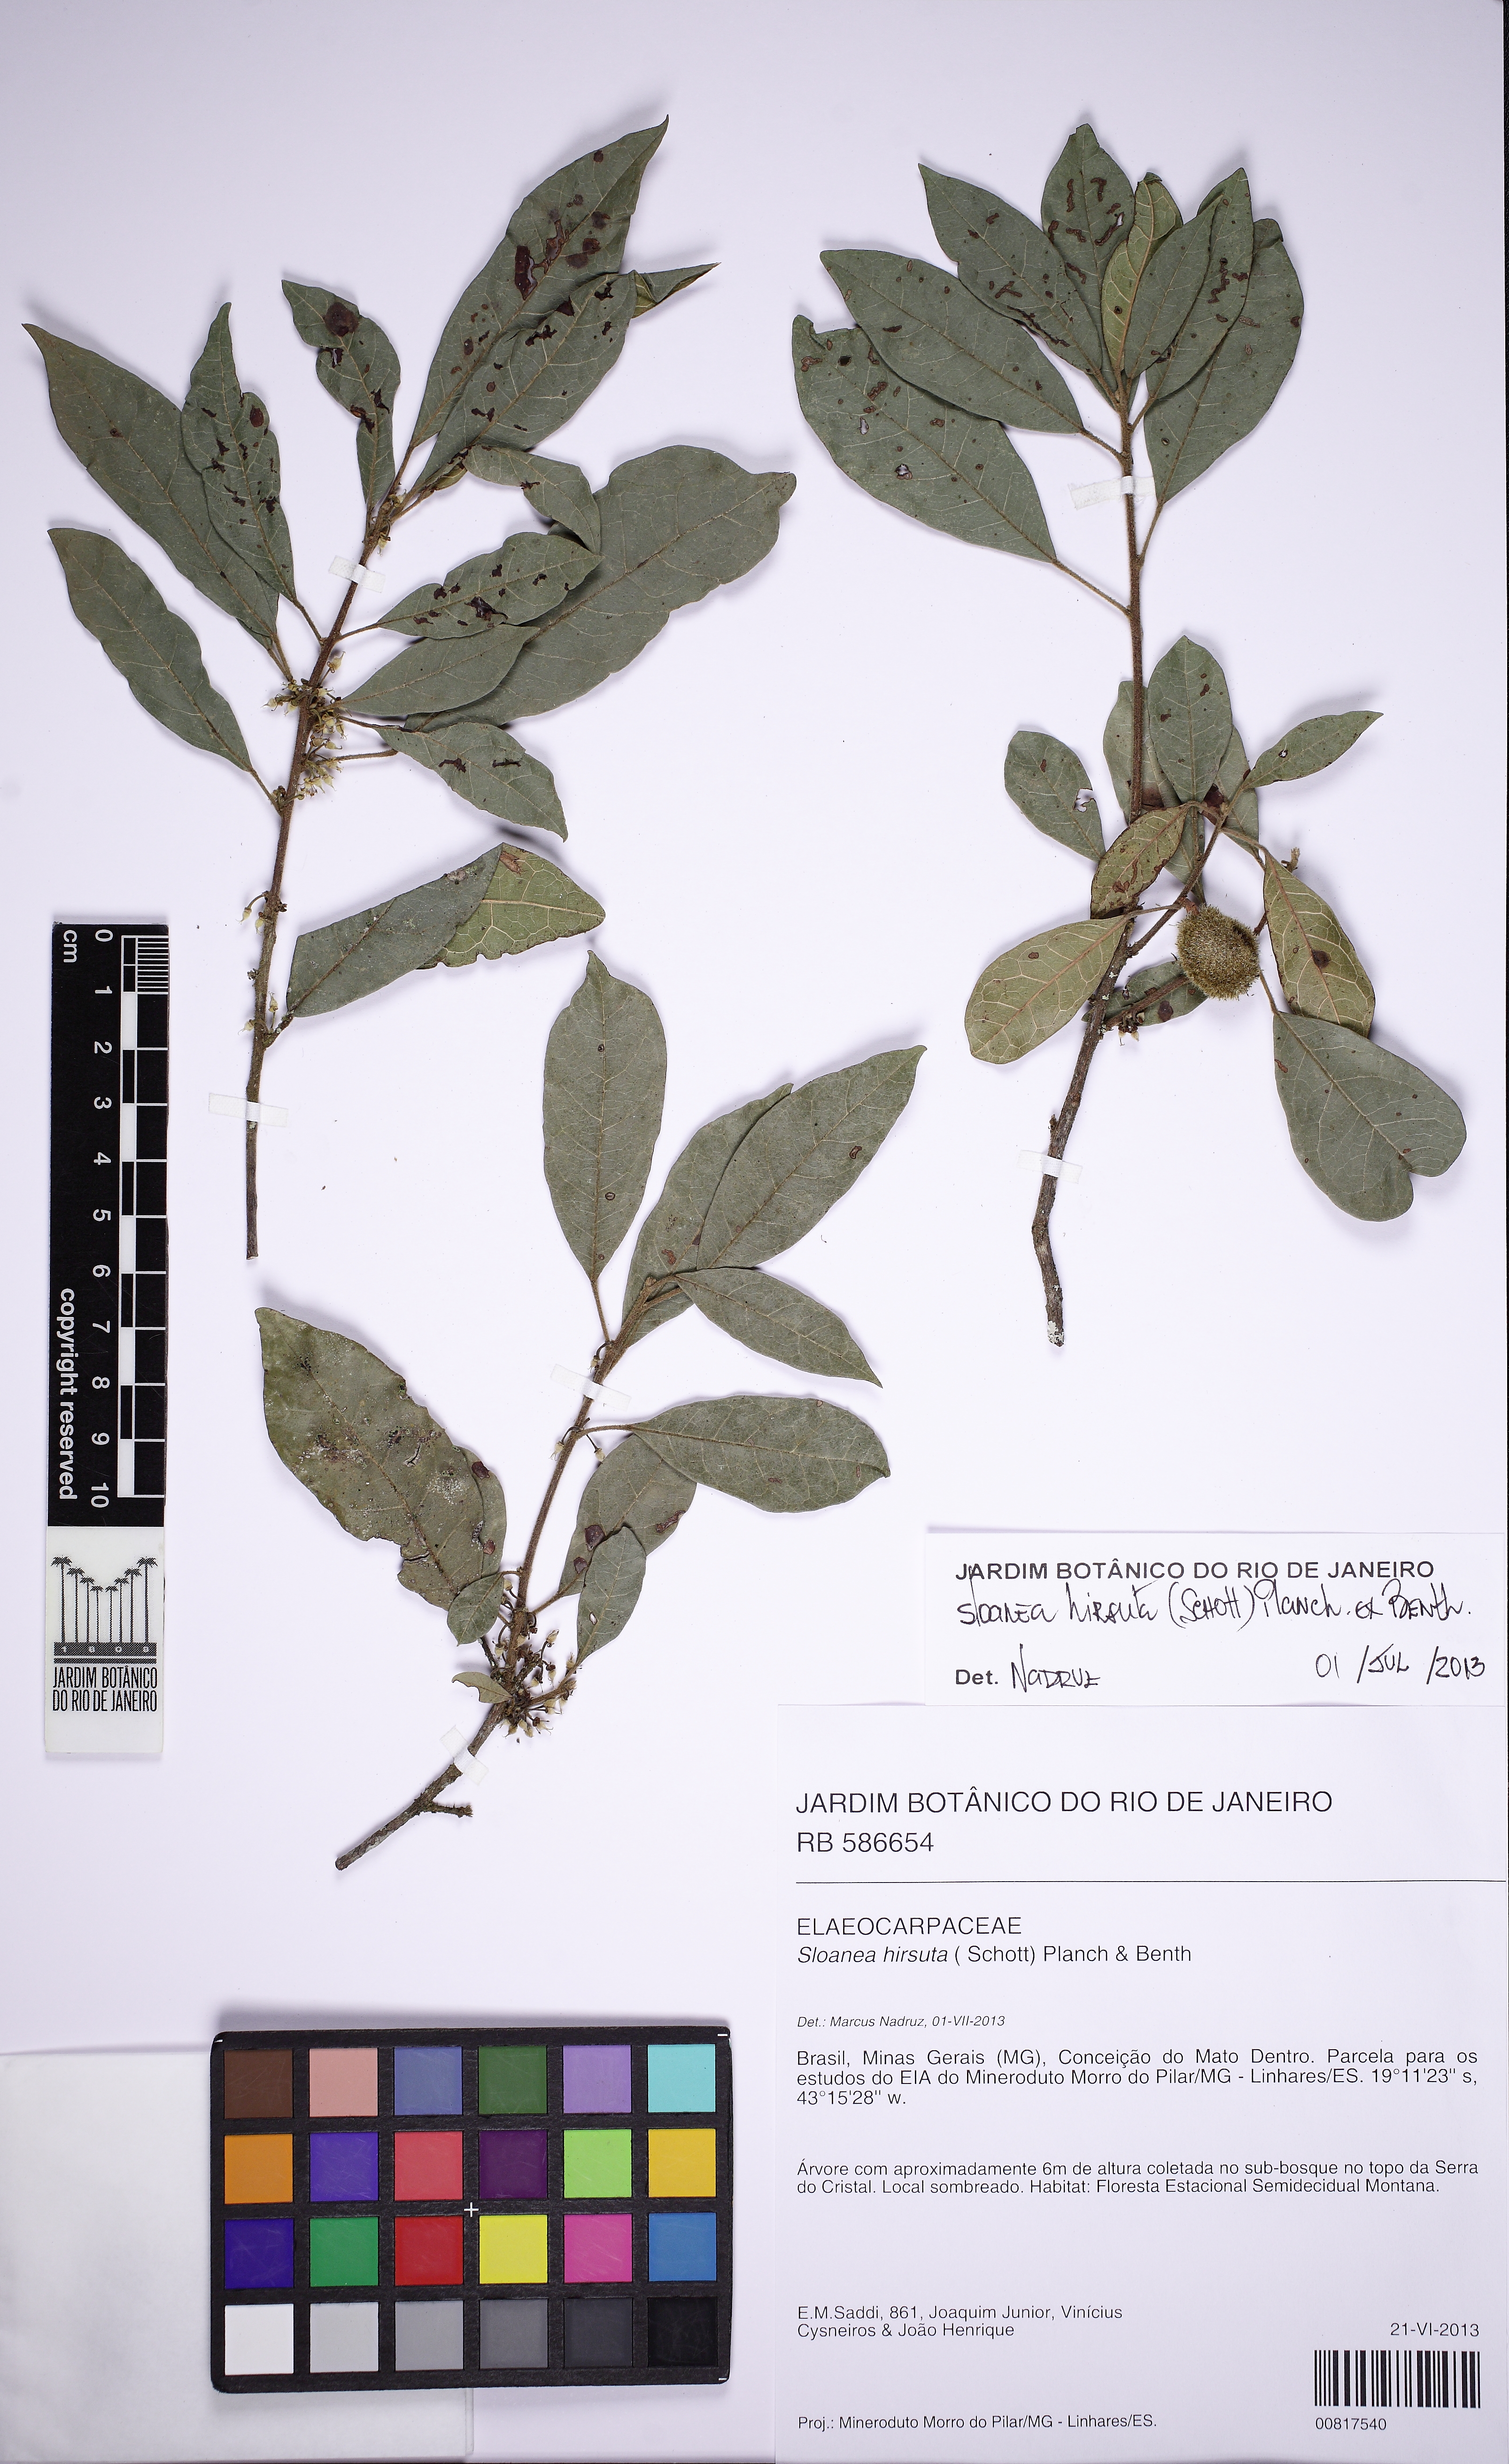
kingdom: Plantae
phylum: Tracheophyta
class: Magnoliopsida
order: Oxalidales
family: Elaeocarpaceae
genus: Sloanea
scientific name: Sloanea hirsuta
